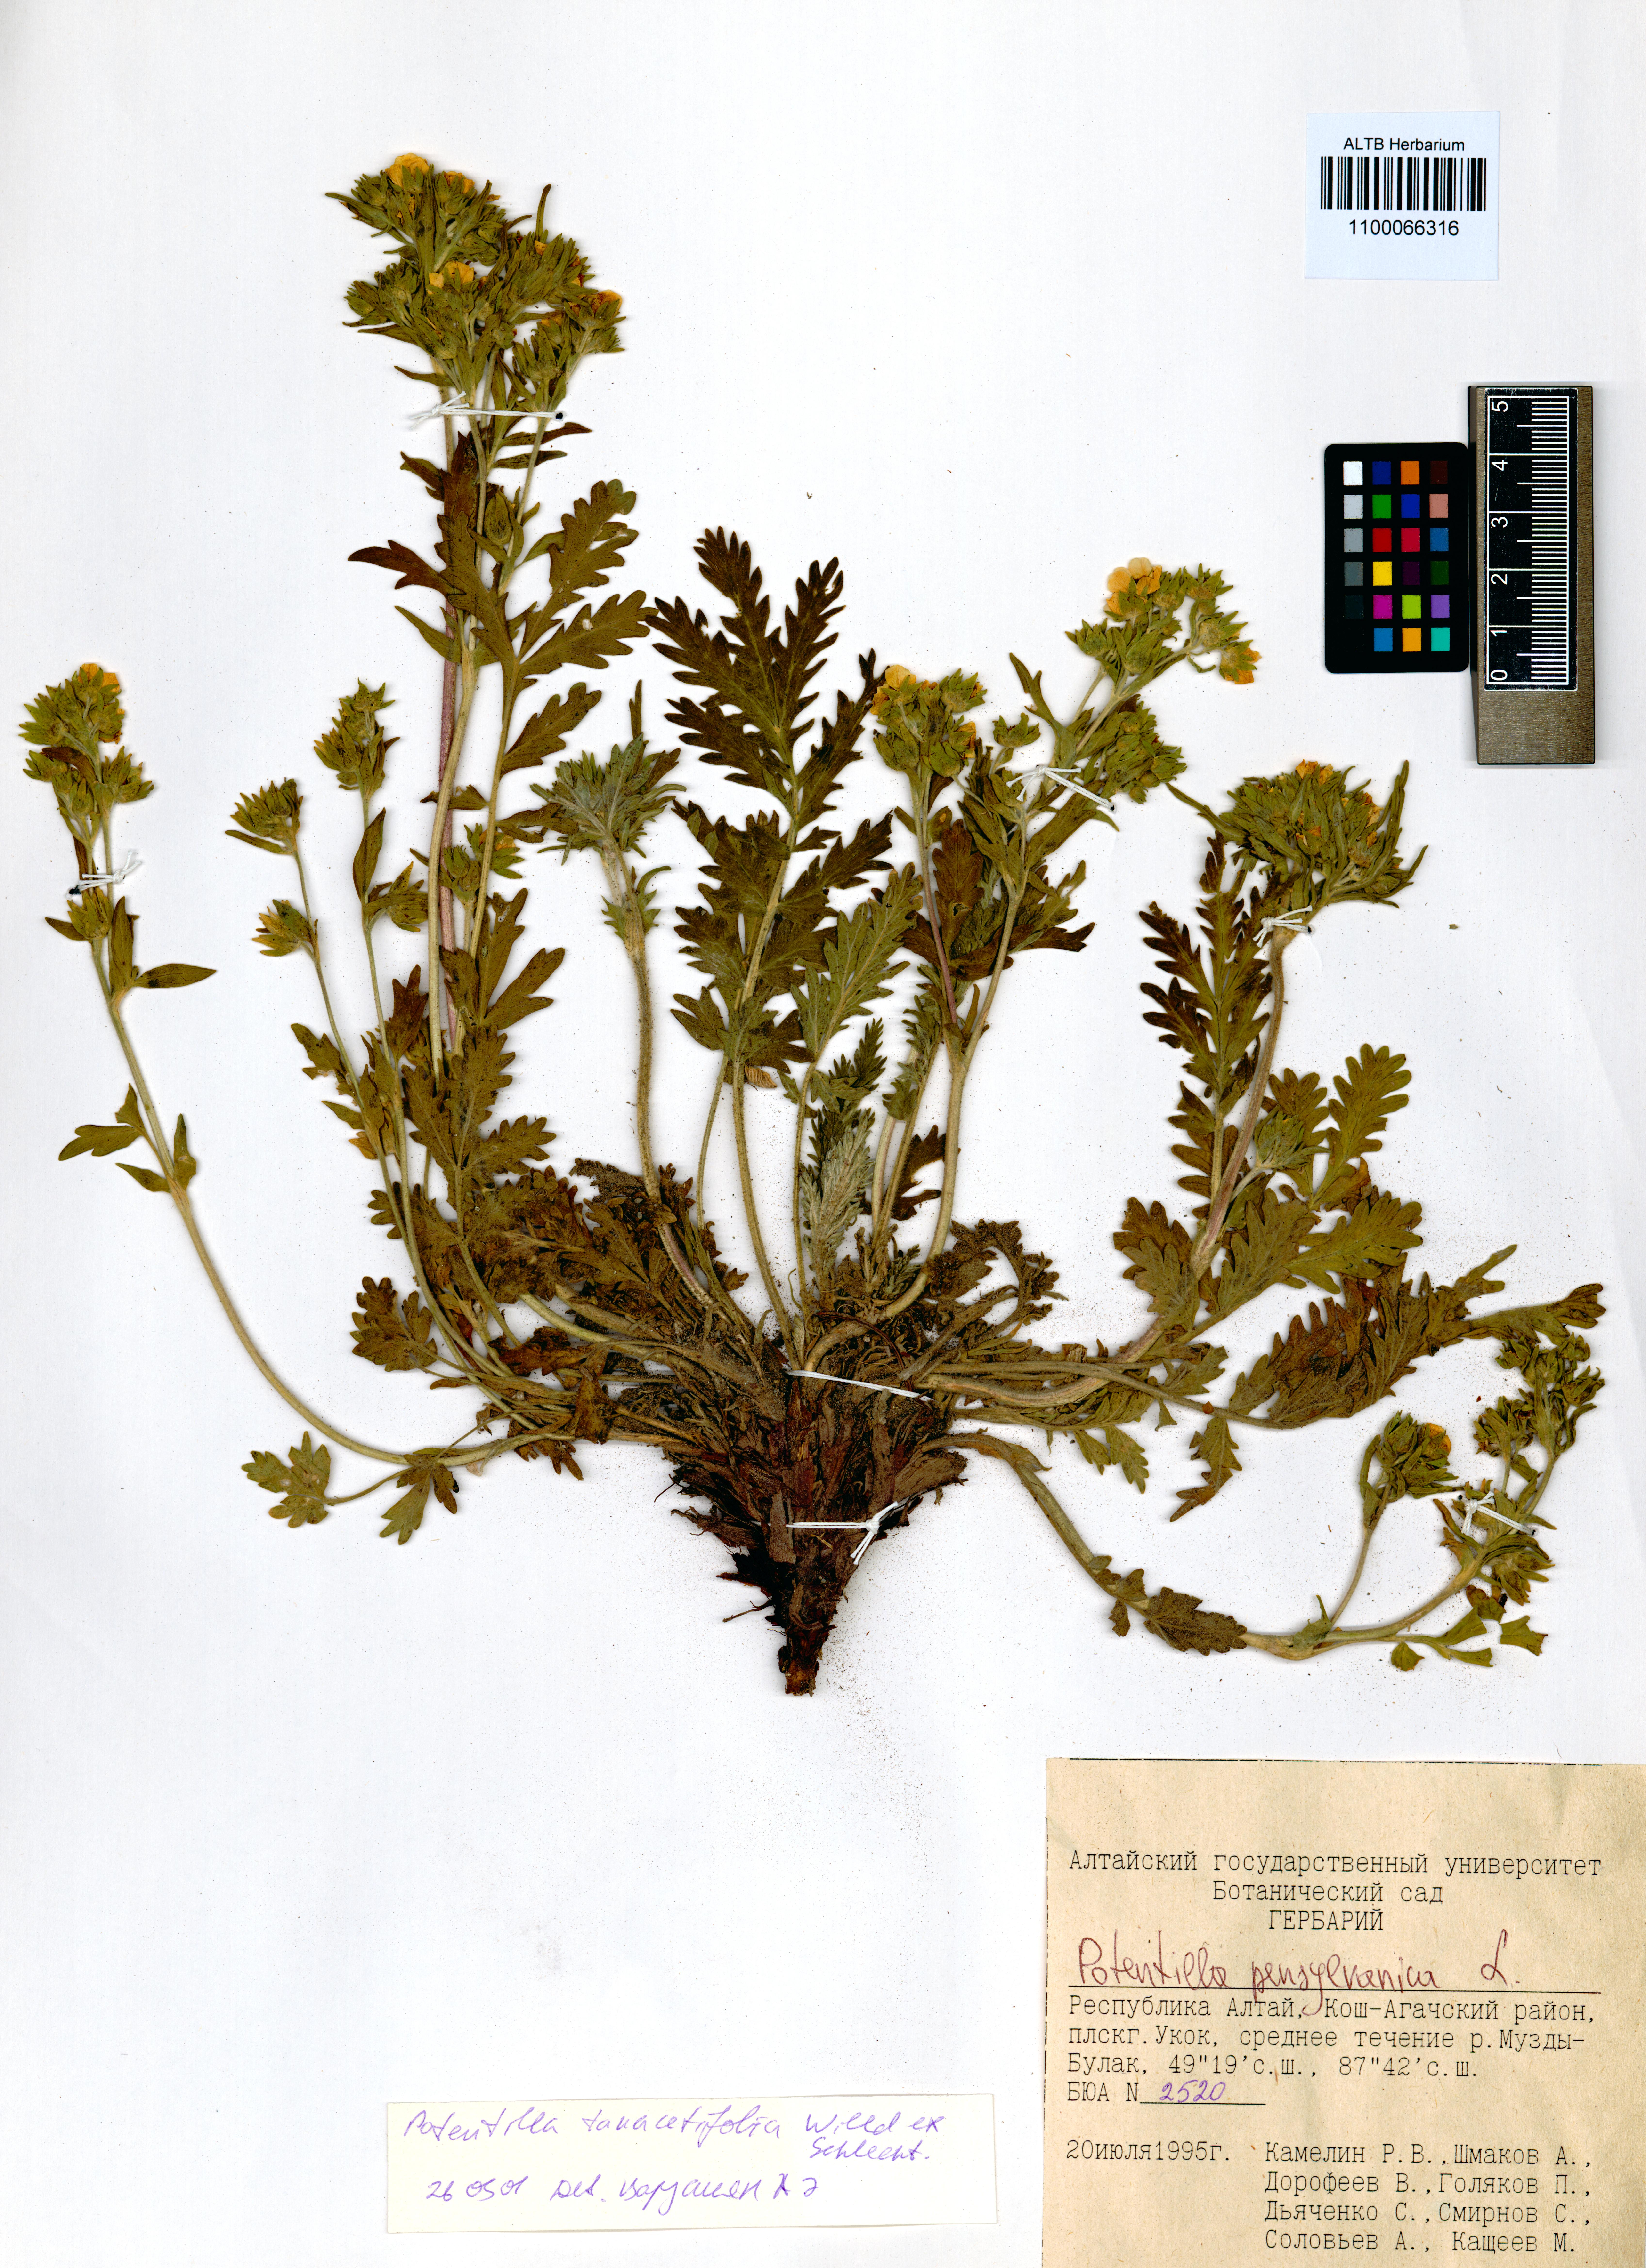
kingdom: Plantae
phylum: Tracheophyta
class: Magnoliopsida
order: Rosales
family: Rosaceae
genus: Potentilla
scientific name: Potentilla pensylvanica
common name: Pennsylvania cinquefoil
